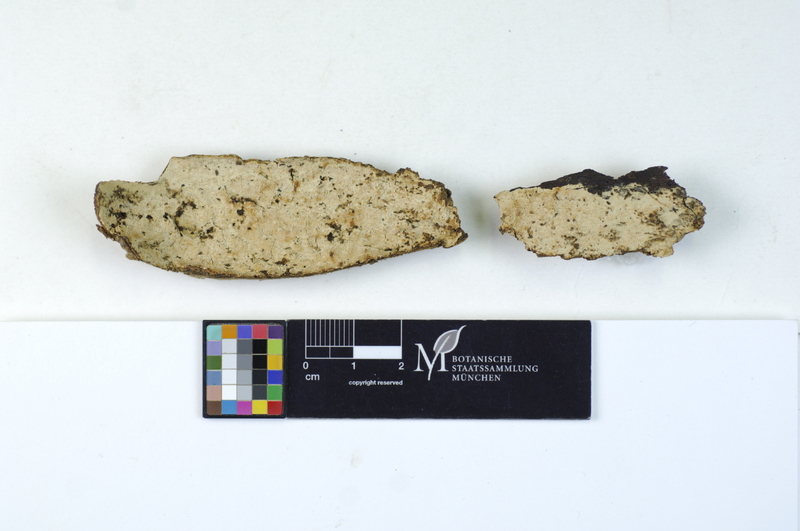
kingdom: Plantae
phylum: Tracheophyta
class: Magnoliopsida
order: Malpighiales
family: Salicaceae
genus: Populus
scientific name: Populus
